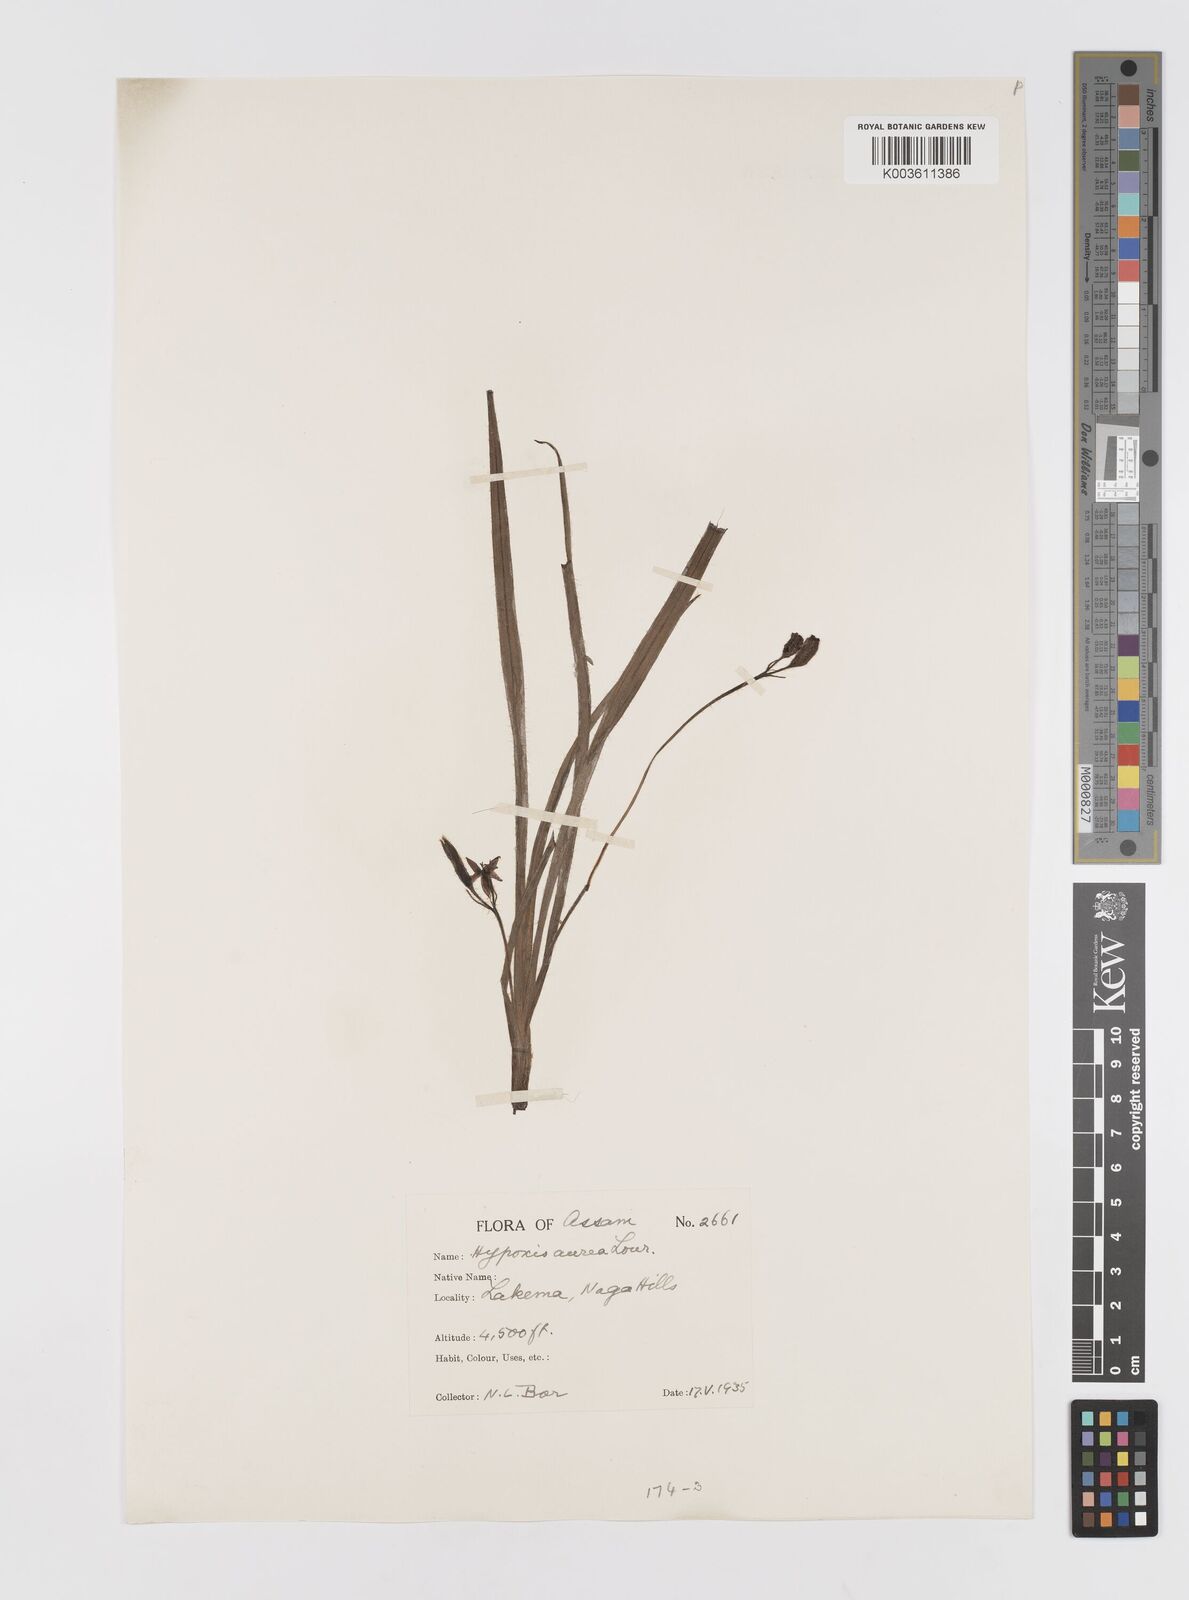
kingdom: Plantae
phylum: Tracheophyta
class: Liliopsida
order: Asparagales
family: Hypoxidaceae
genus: Hypoxis
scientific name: Hypoxis aurea
